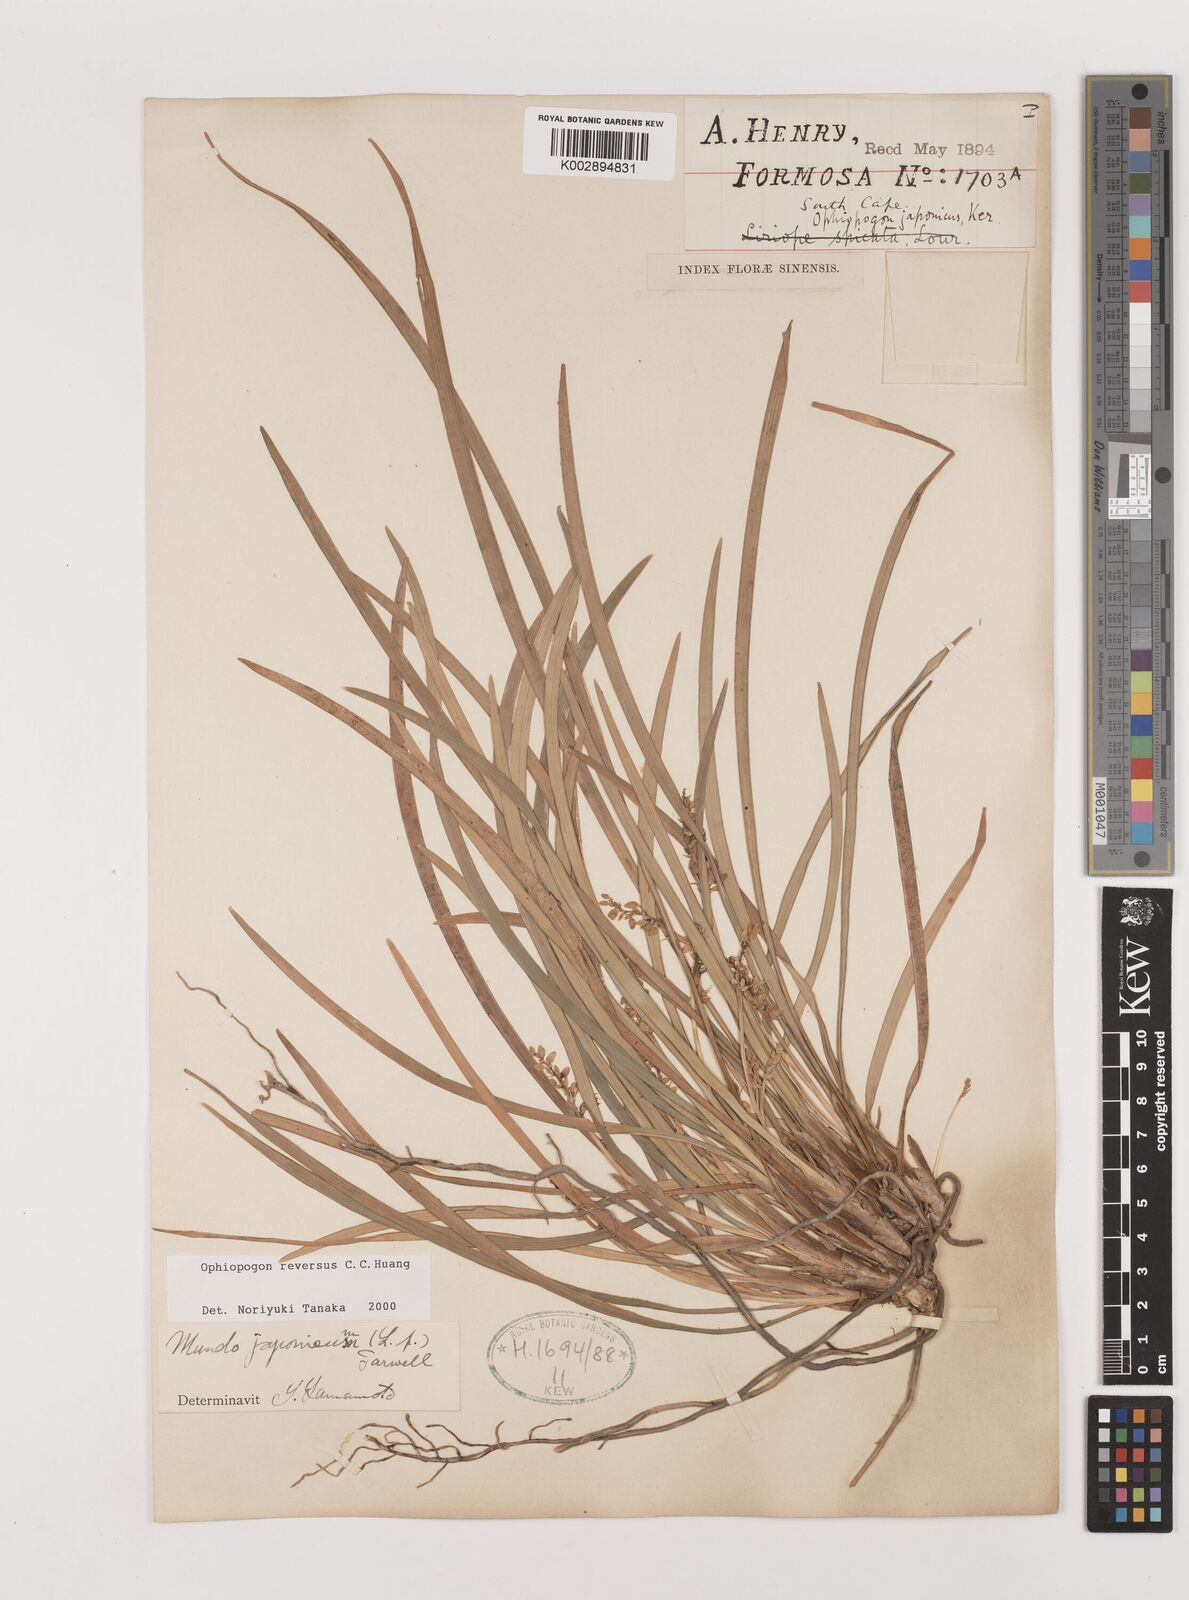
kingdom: Plantae
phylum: Tracheophyta
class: Liliopsida
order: Asparagales
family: Asparagaceae
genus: Ophiopogon
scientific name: Ophiopogon reversus
